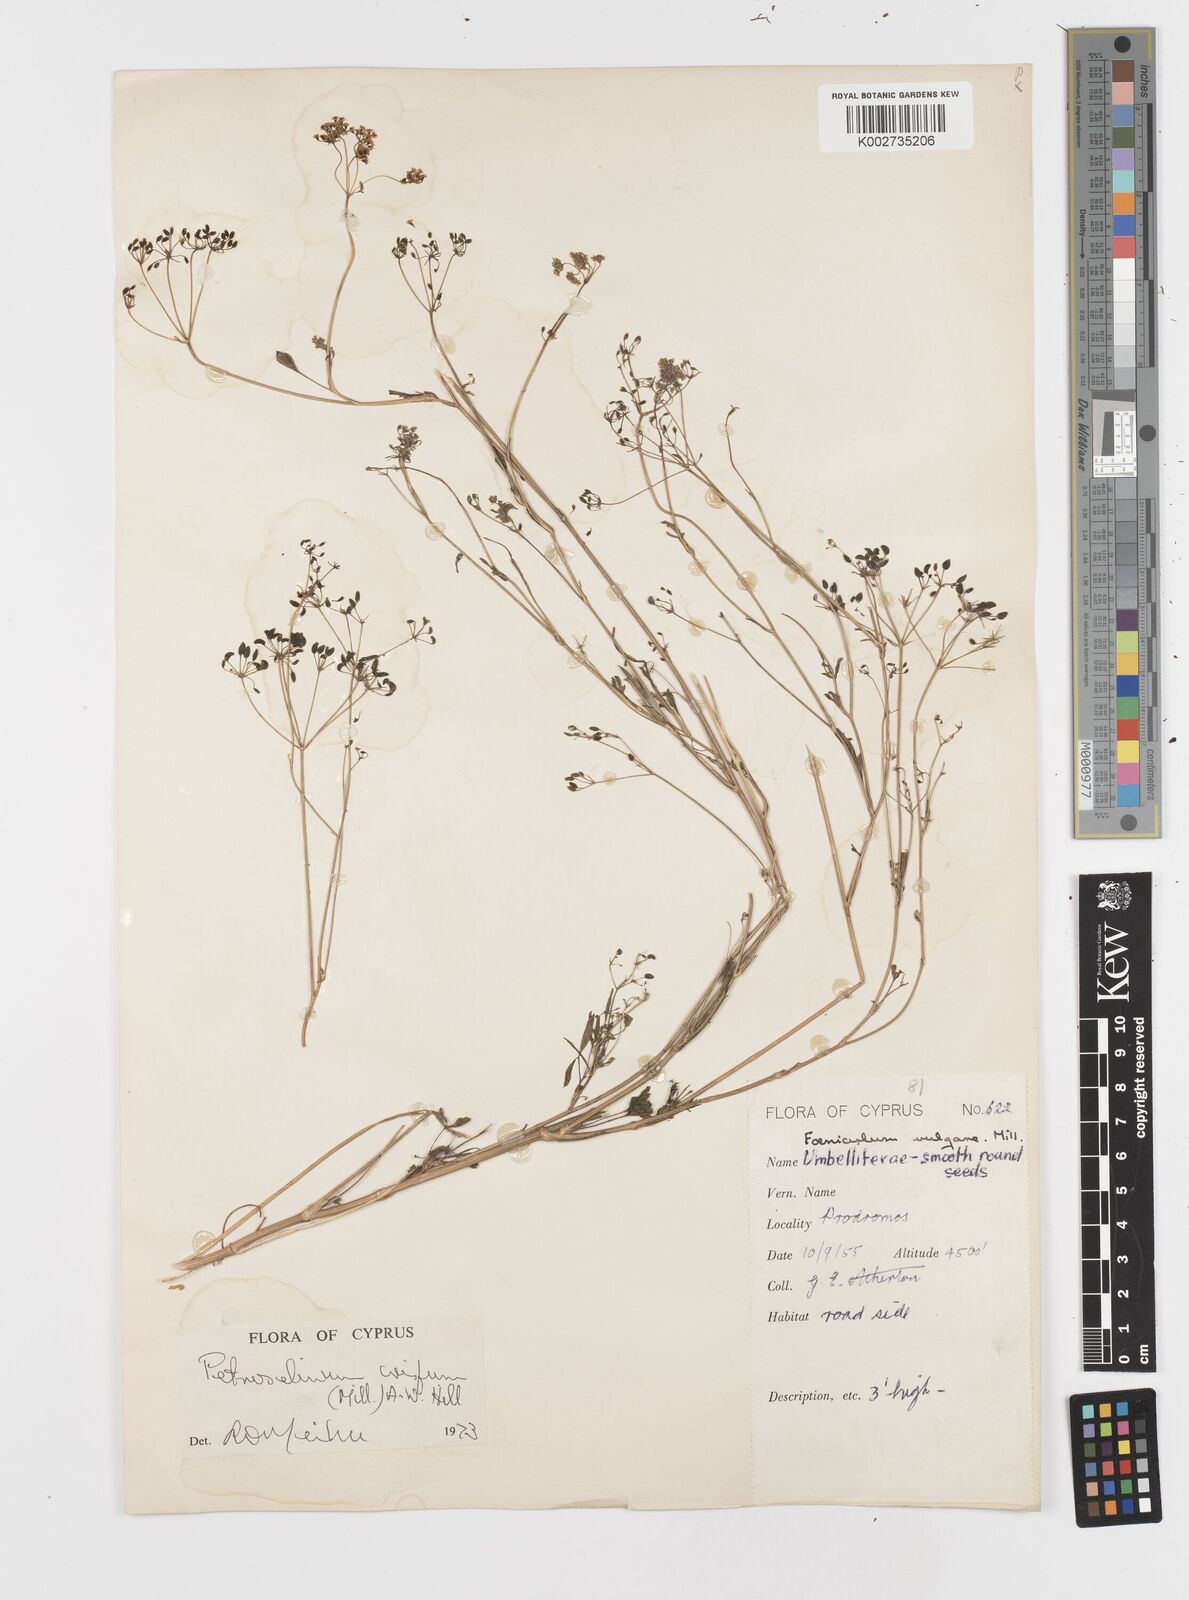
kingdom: Plantae
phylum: Tracheophyta
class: Magnoliopsida
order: Apiales
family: Apiaceae
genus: Petroselinum
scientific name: Petroselinum crispum
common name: Parsley
